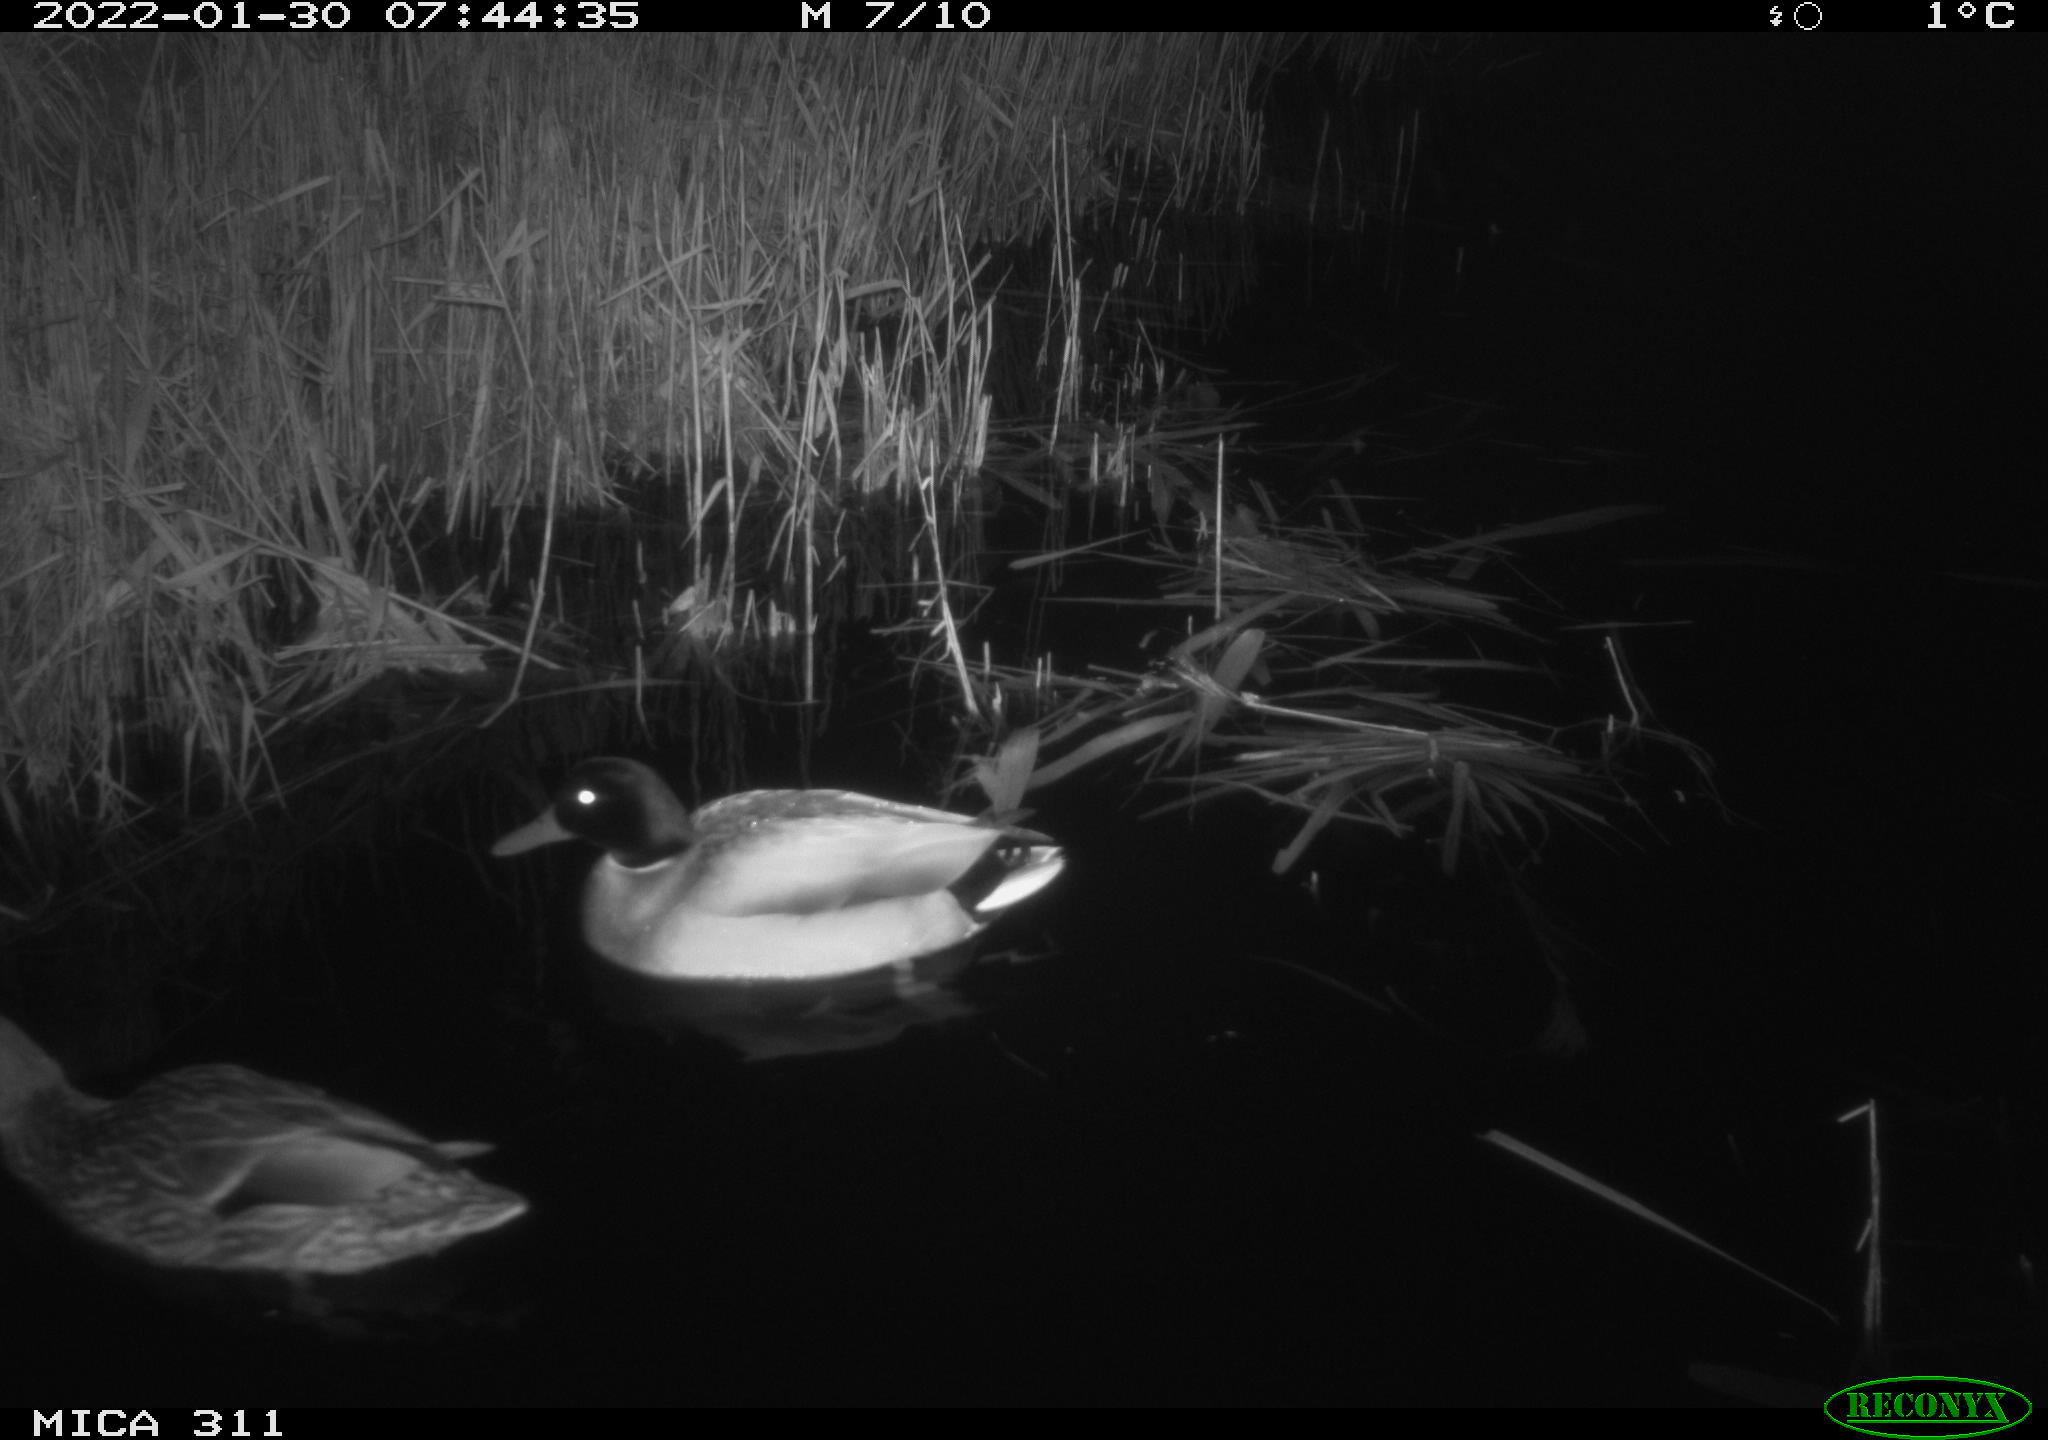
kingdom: Animalia
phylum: Chordata
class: Aves
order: Anseriformes
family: Anatidae
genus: Anas
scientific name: Anas
